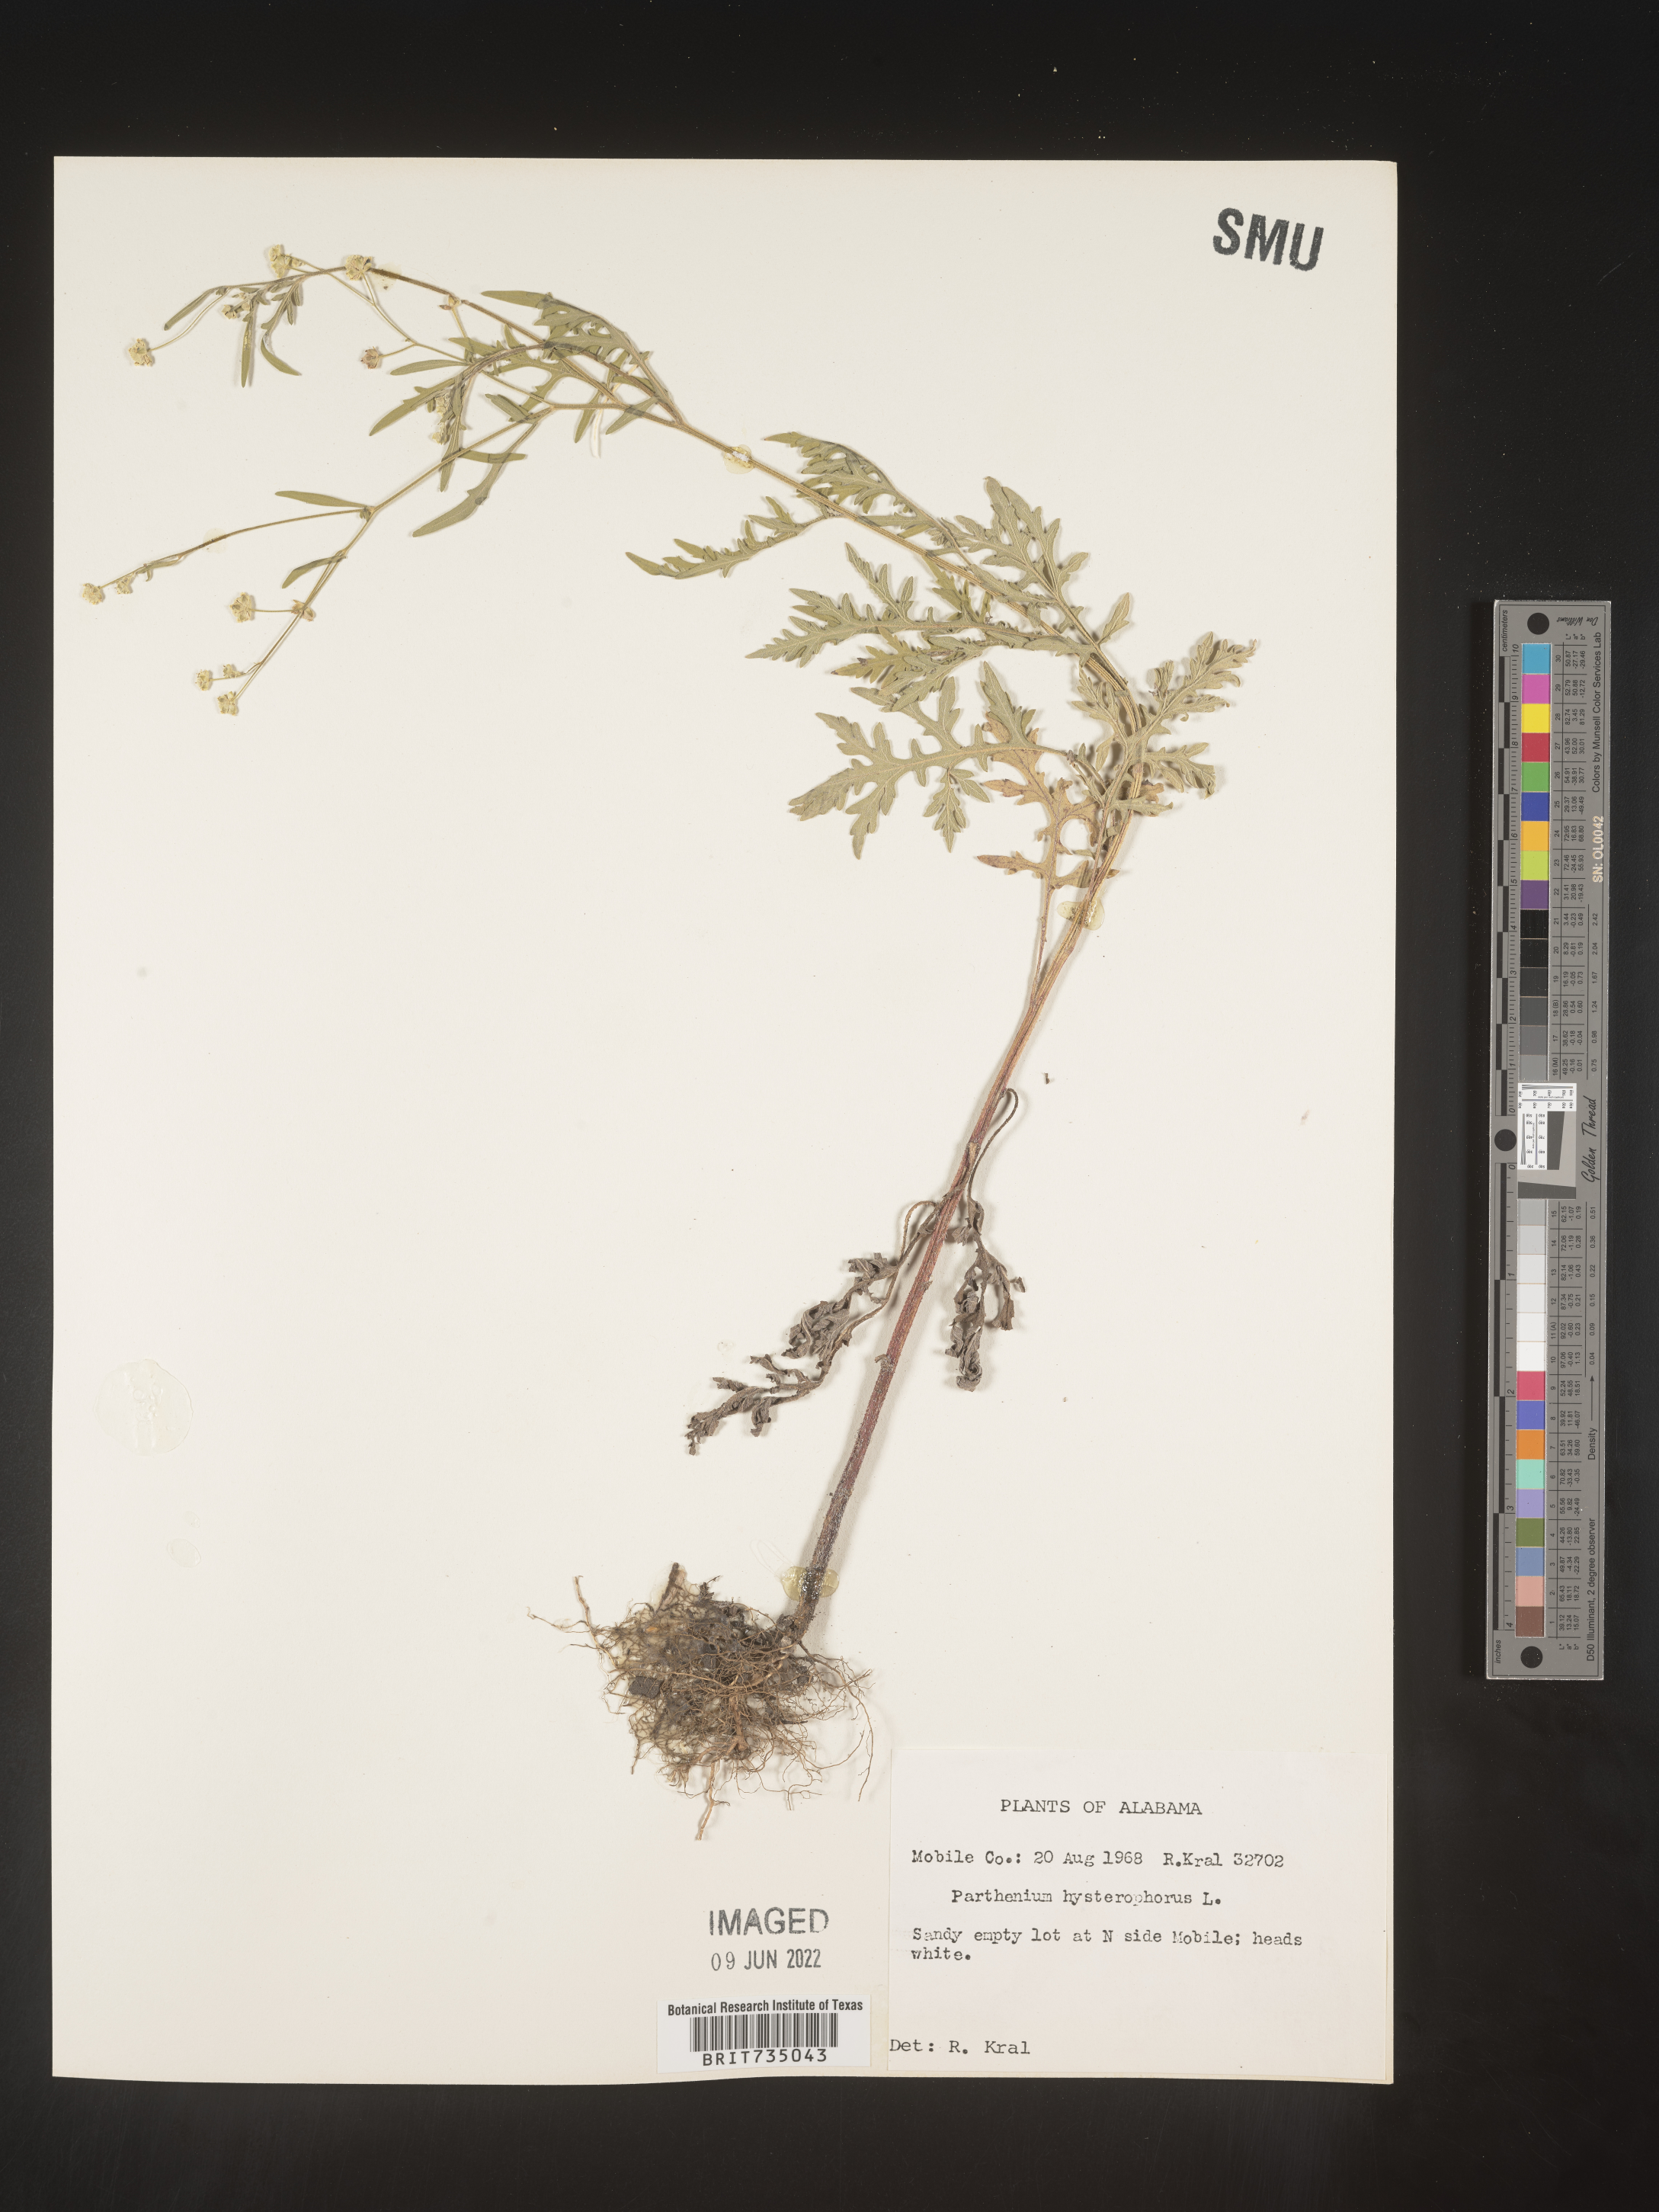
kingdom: Plantae
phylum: Tracheophyta
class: Magnoliopsida
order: Asterales
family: Asteraceae
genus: Parthenium
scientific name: Parthenium hysterophorus
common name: Santa maria feverfew
